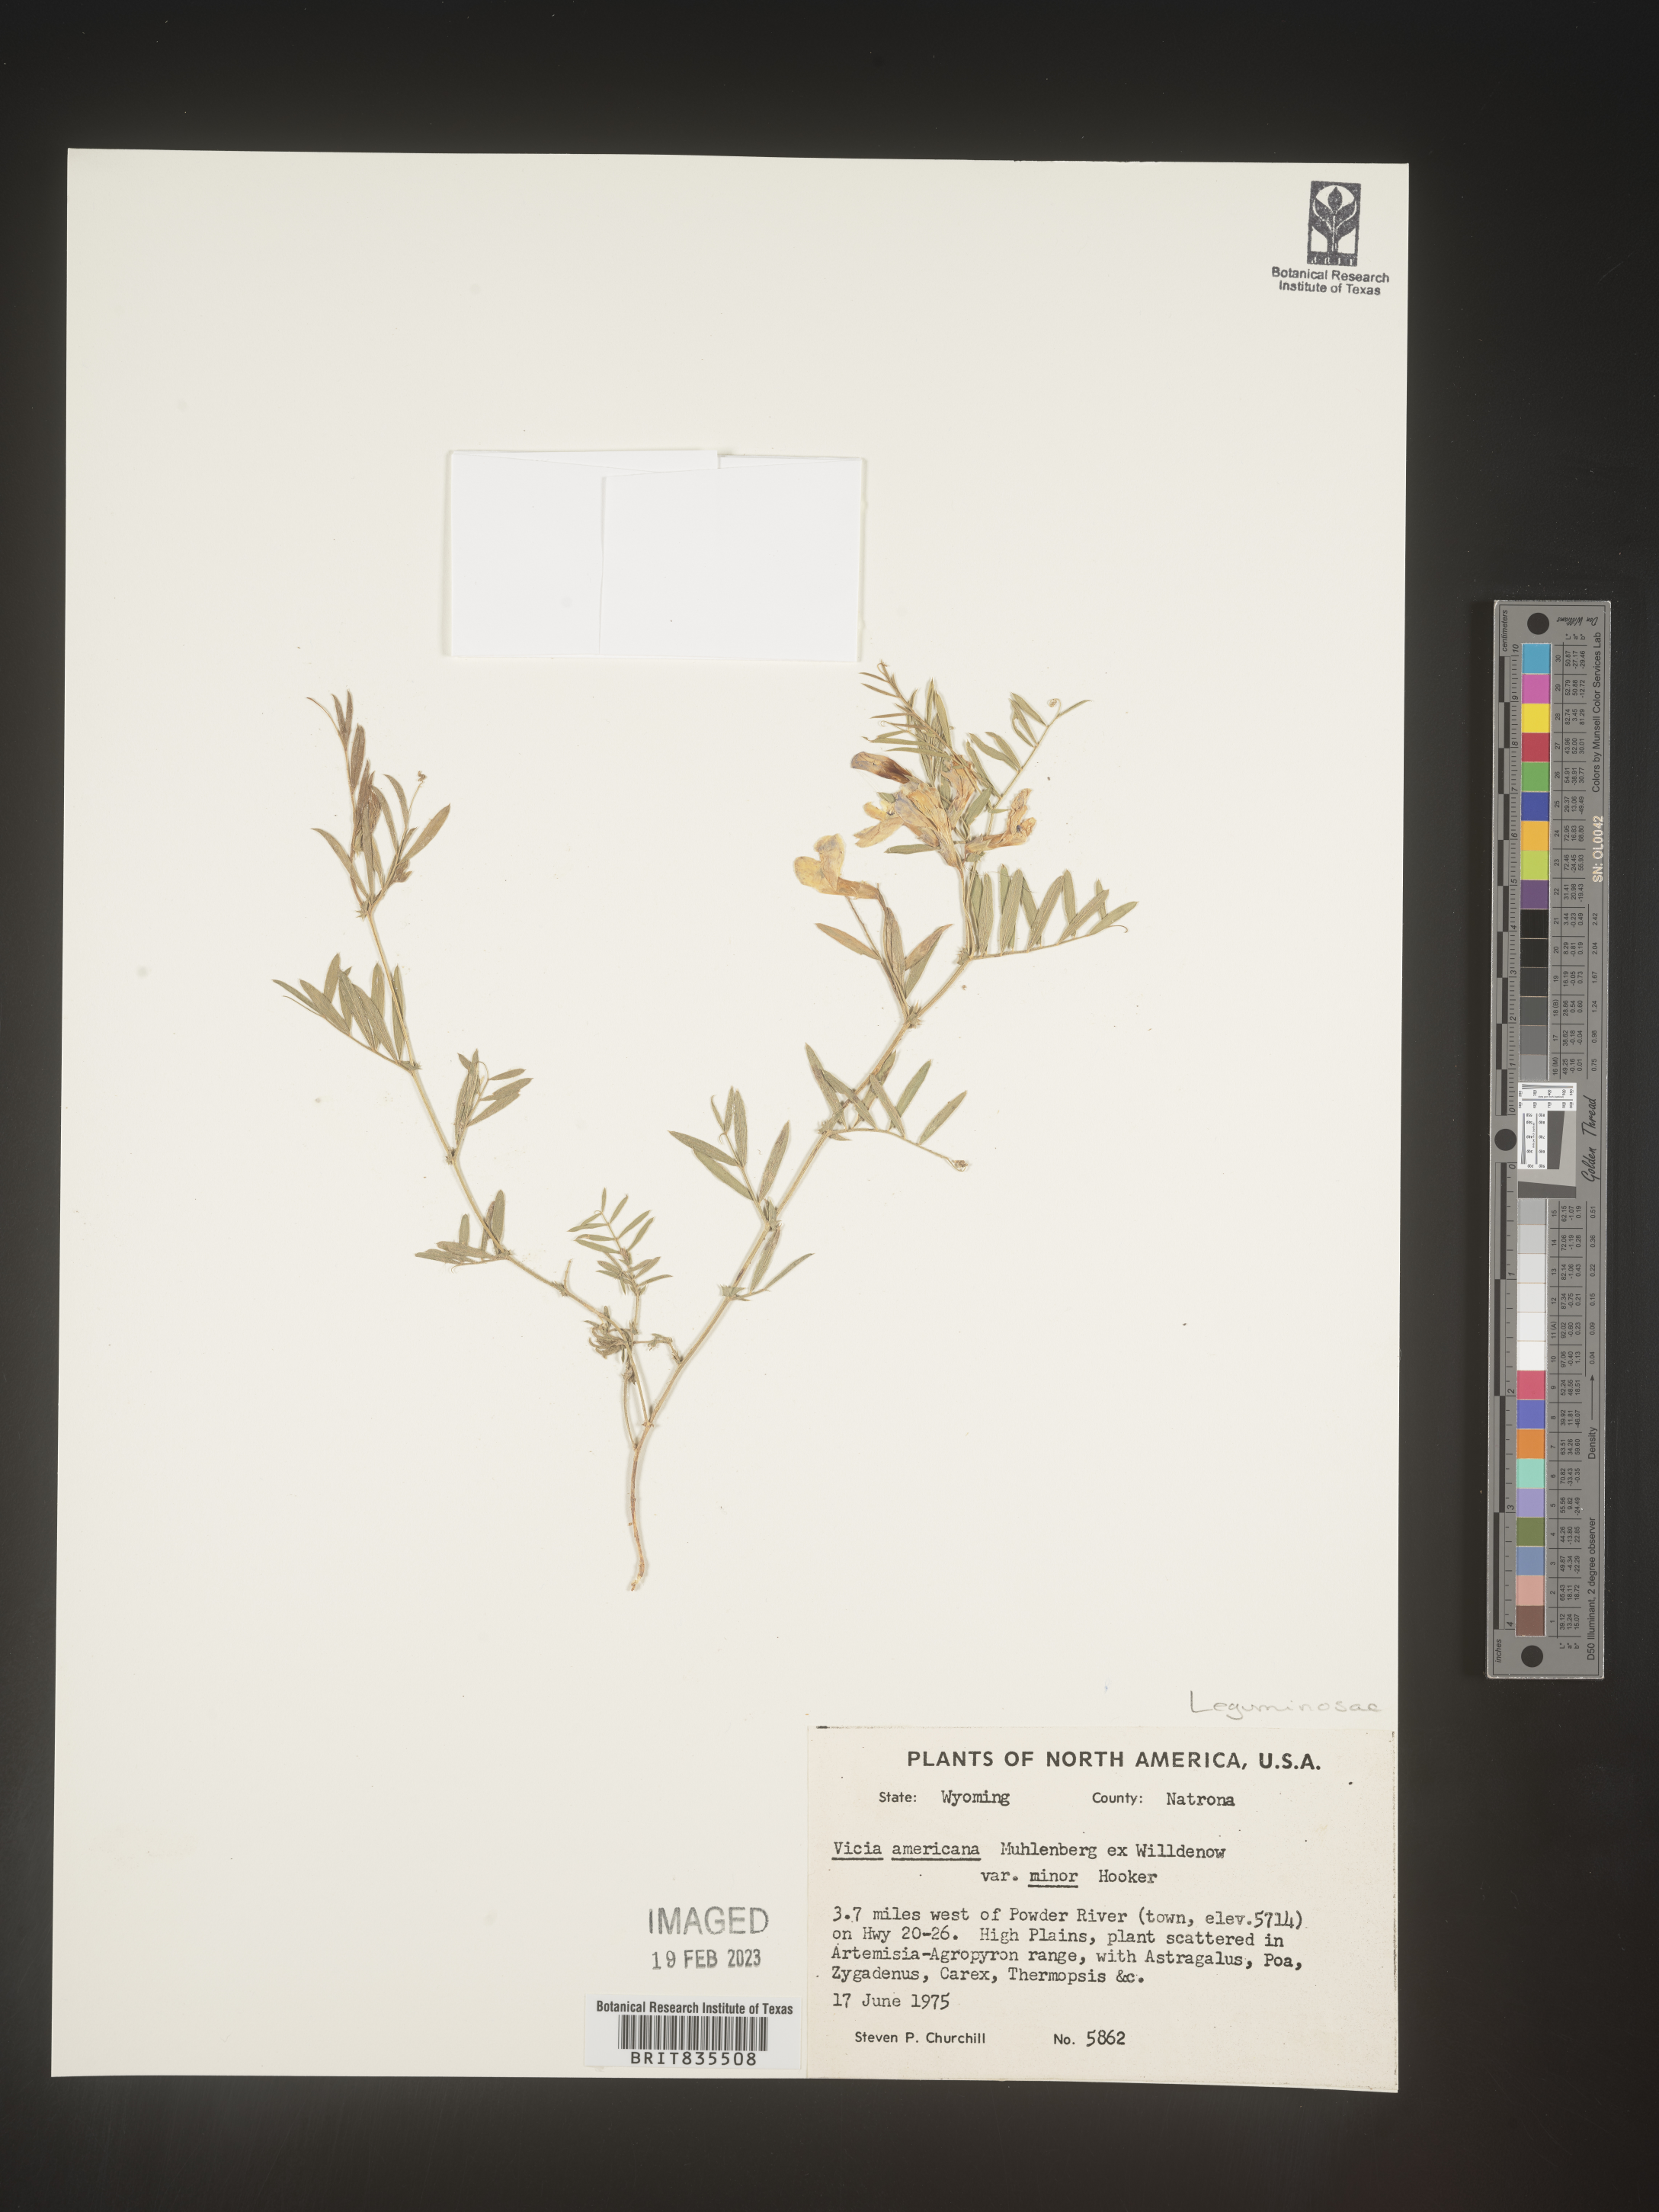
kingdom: Plantae
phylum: Tracheophyta
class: Magnoliopsida
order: Fabales
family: Fabaceae
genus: Vicia
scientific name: Vicia americana
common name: American vetch
